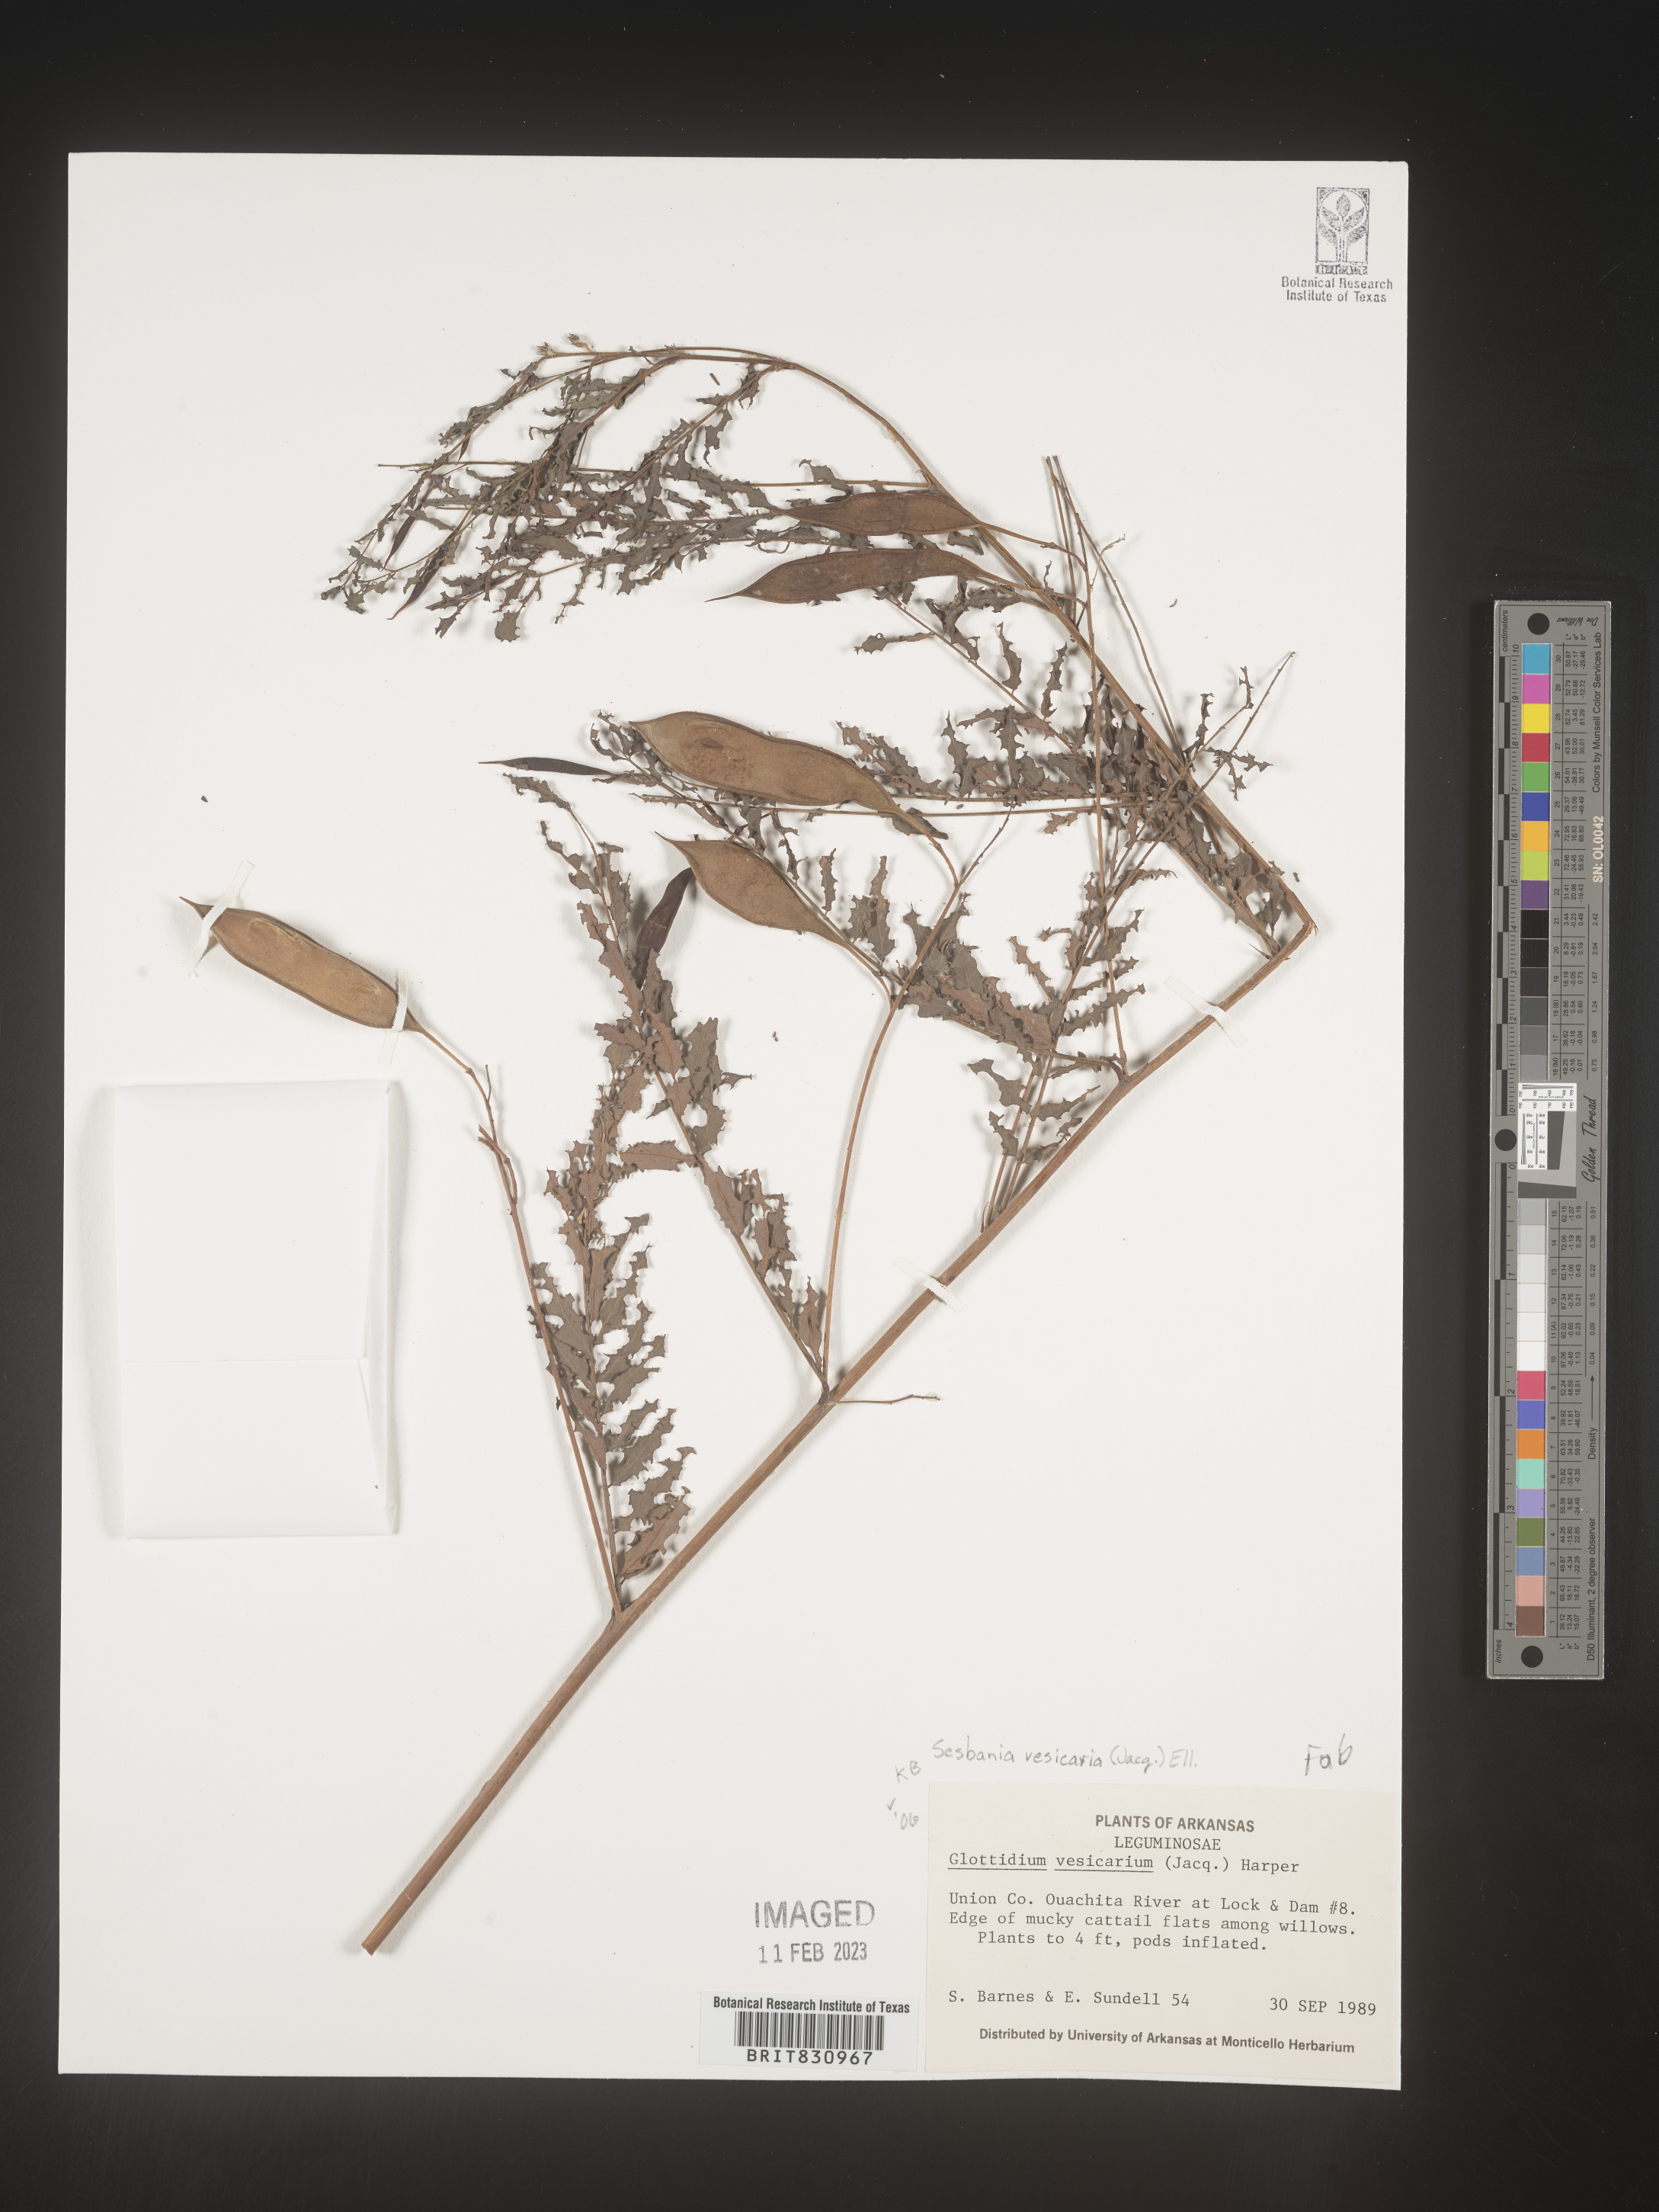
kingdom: Plantae
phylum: Tracheophyta
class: Magnoliopsida
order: Fabales
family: Fabaceae
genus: Sesbania
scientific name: Sesbania vesicaria
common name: Bagpod
